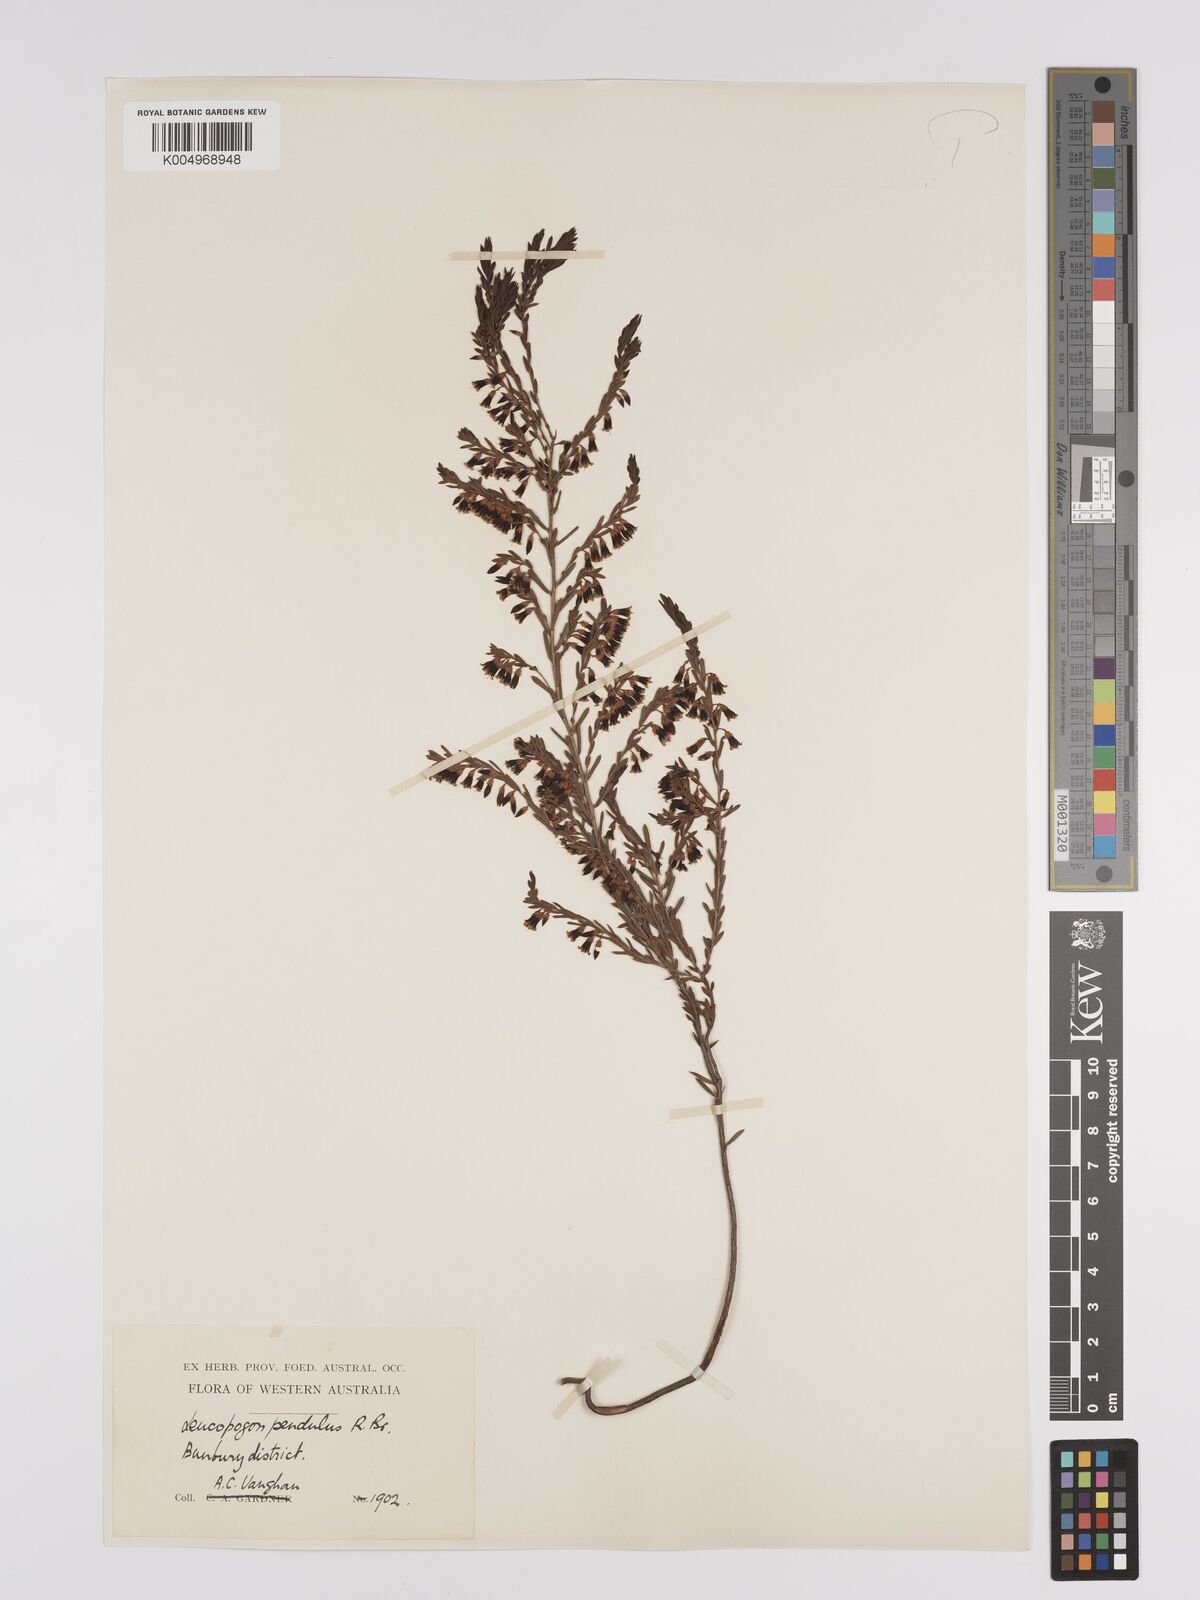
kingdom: Plantae
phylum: Tracheophyta
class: Magnoliopsida
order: Ericales
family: Ericaceae
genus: Styphelia
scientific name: Styphelia pendula
